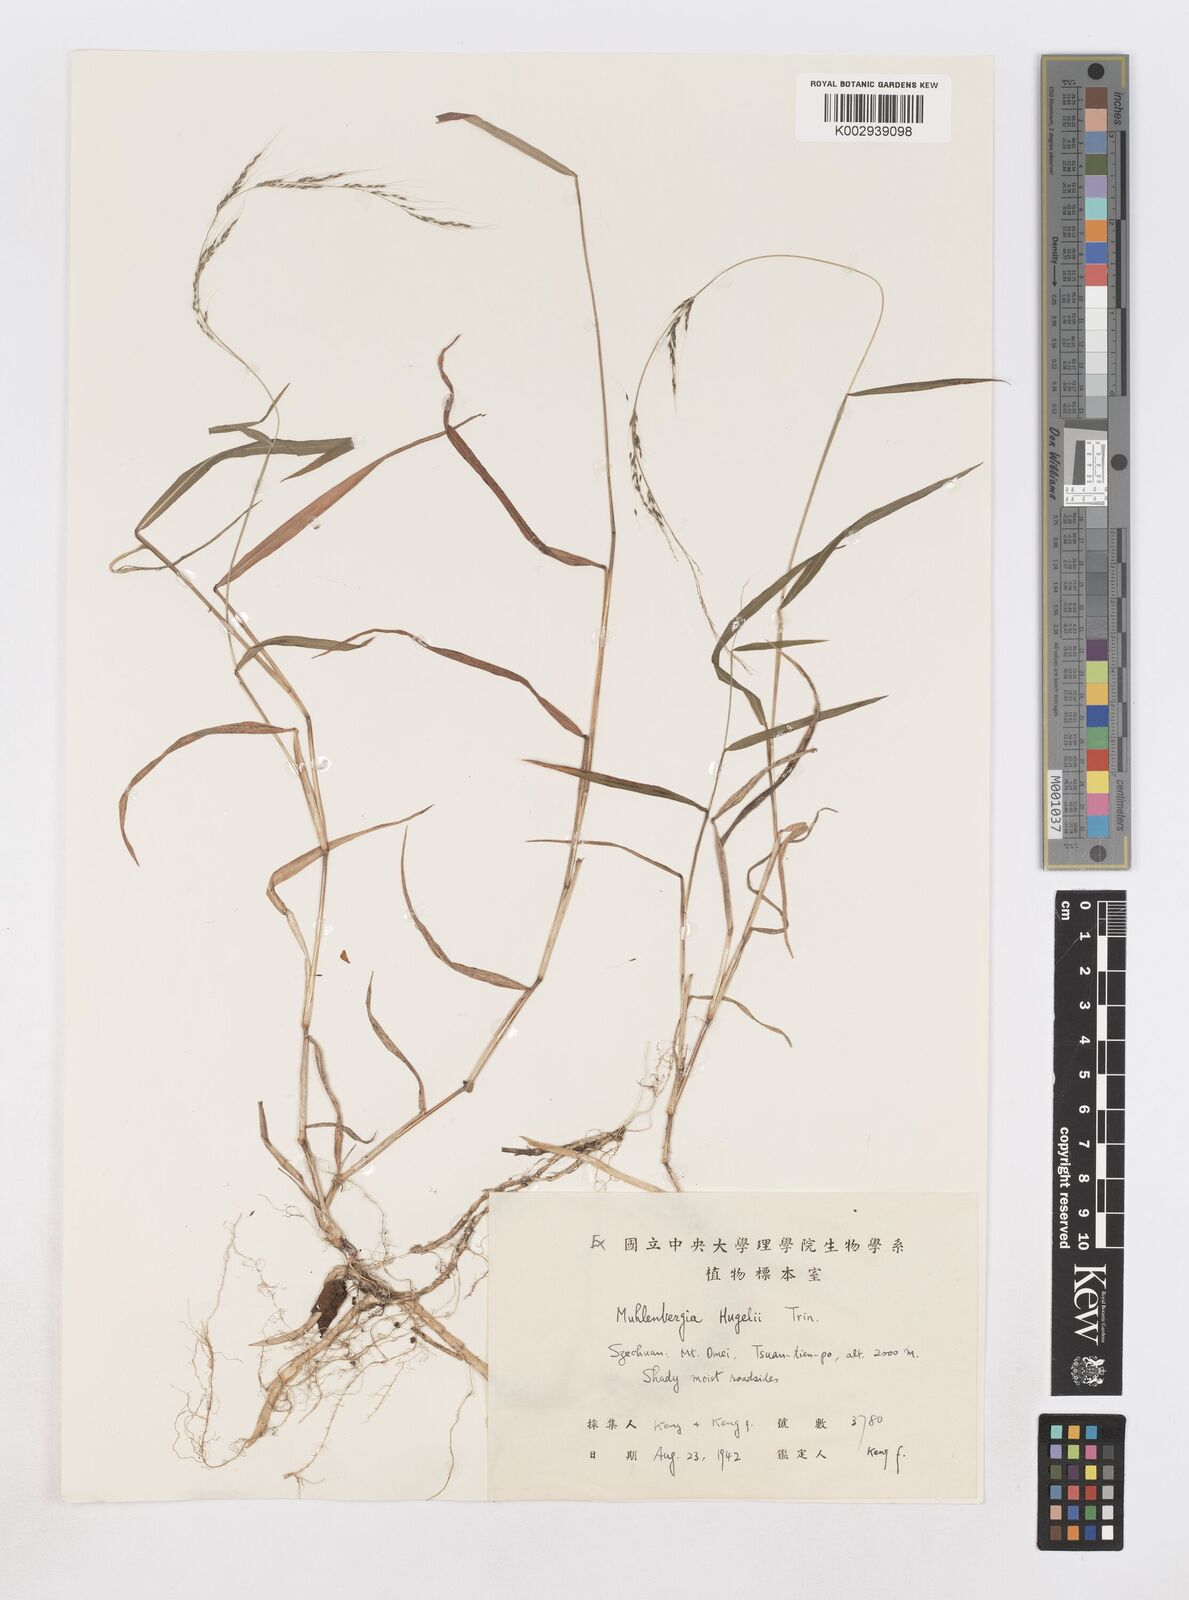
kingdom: Plantae
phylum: Tracheophyta
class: Liliopsida
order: Poales
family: Poaceae
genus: Muhlenbergia
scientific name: Muhlenbergia huegelii
